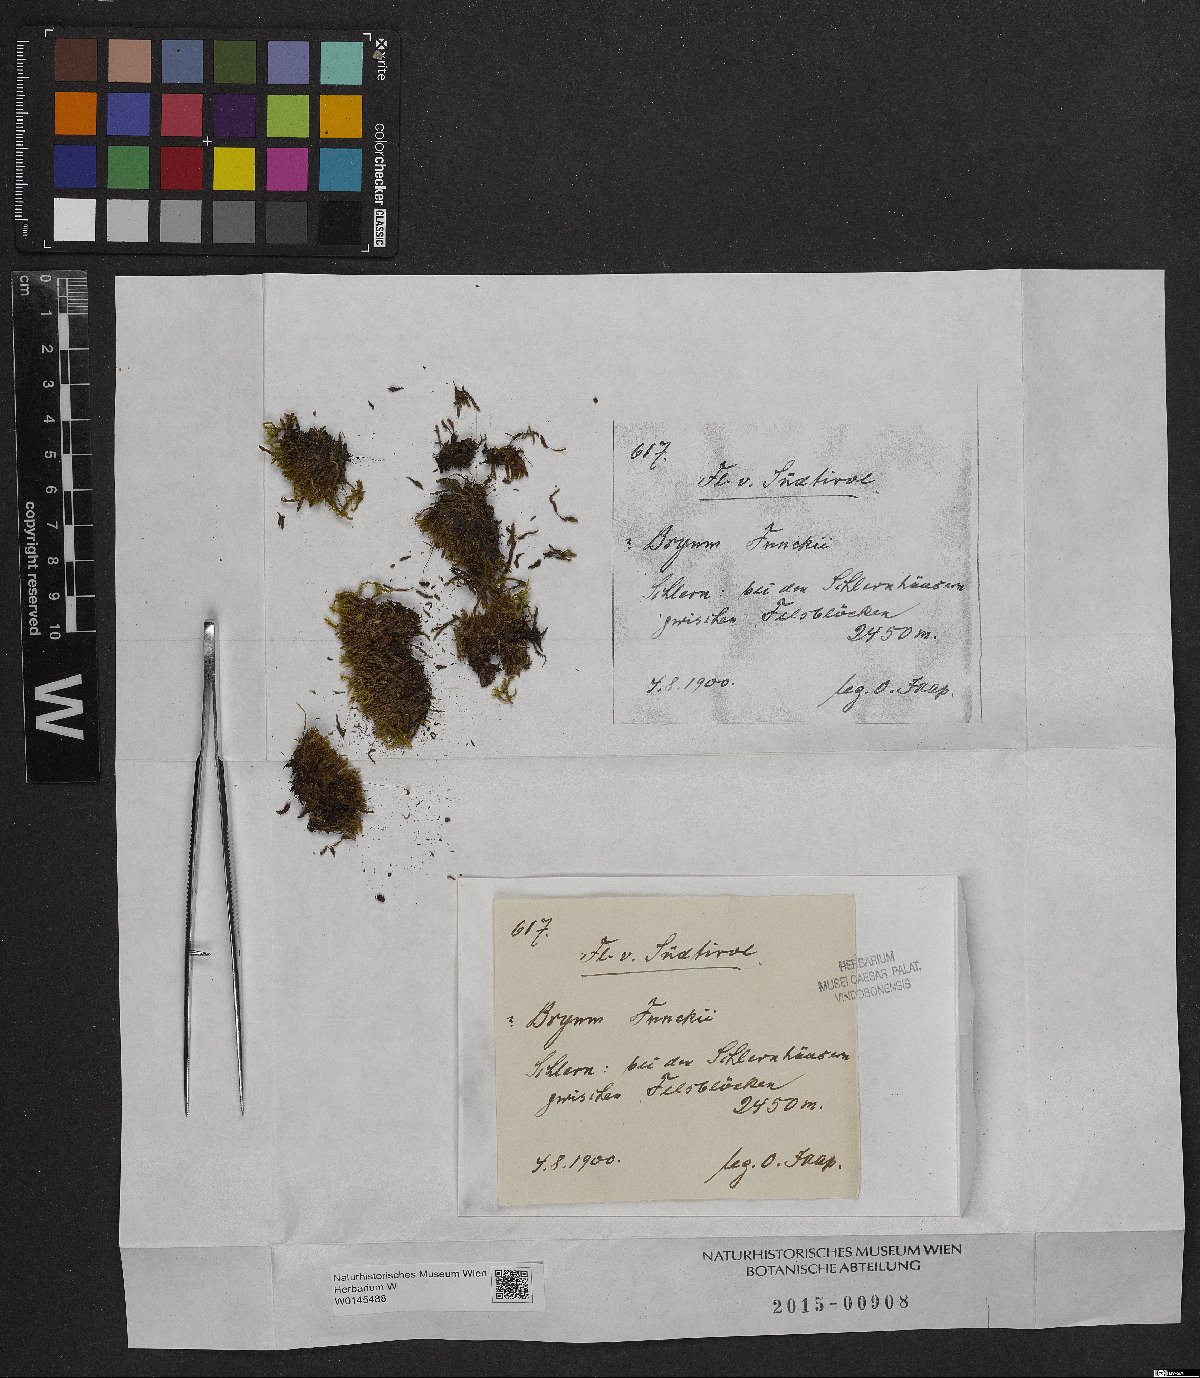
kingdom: Plantae
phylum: Bryophyta
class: Bryopsida
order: Bryales
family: Bryaceae
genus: Bryum
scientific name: Bryum funckii
